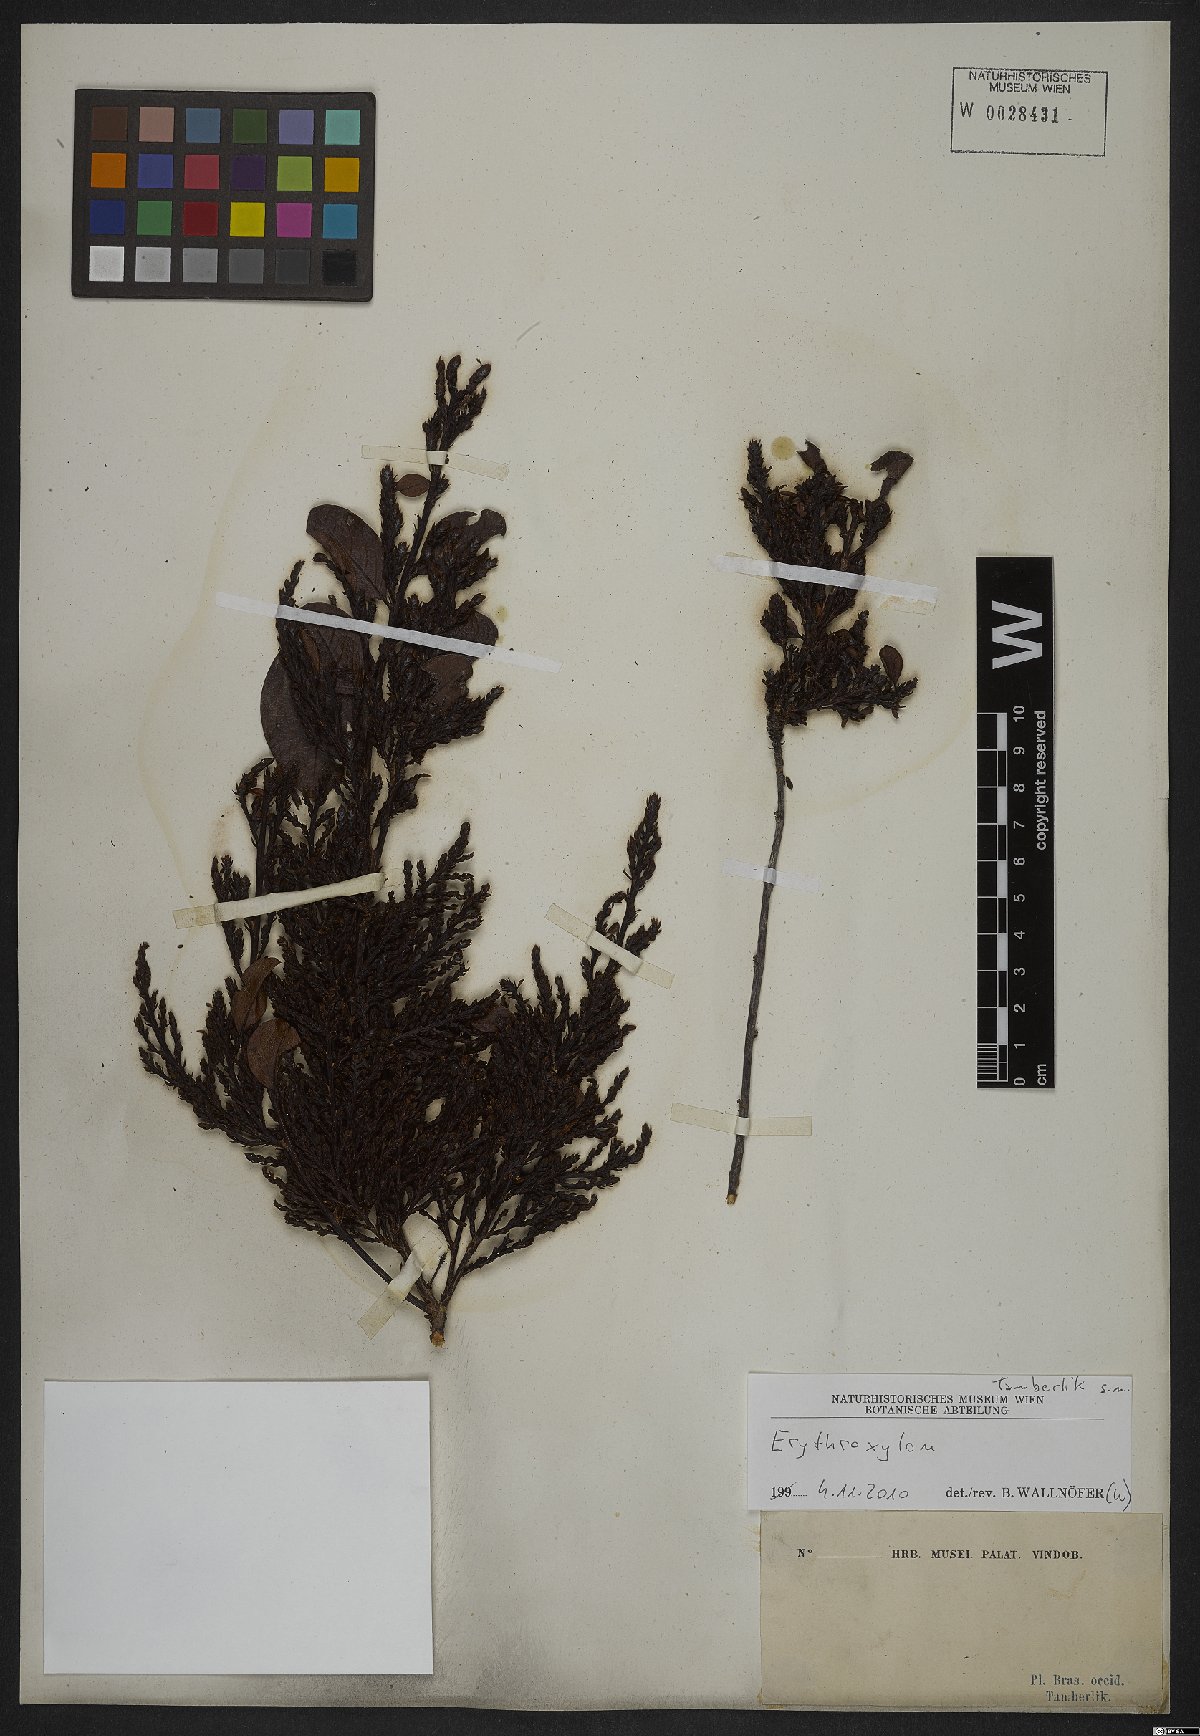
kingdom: Plantae
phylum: Tracheophyta
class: Magnoliopsida
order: Malpighiales
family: Erythroxylaceae
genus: Erythroxylum
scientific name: Erythroxylum
